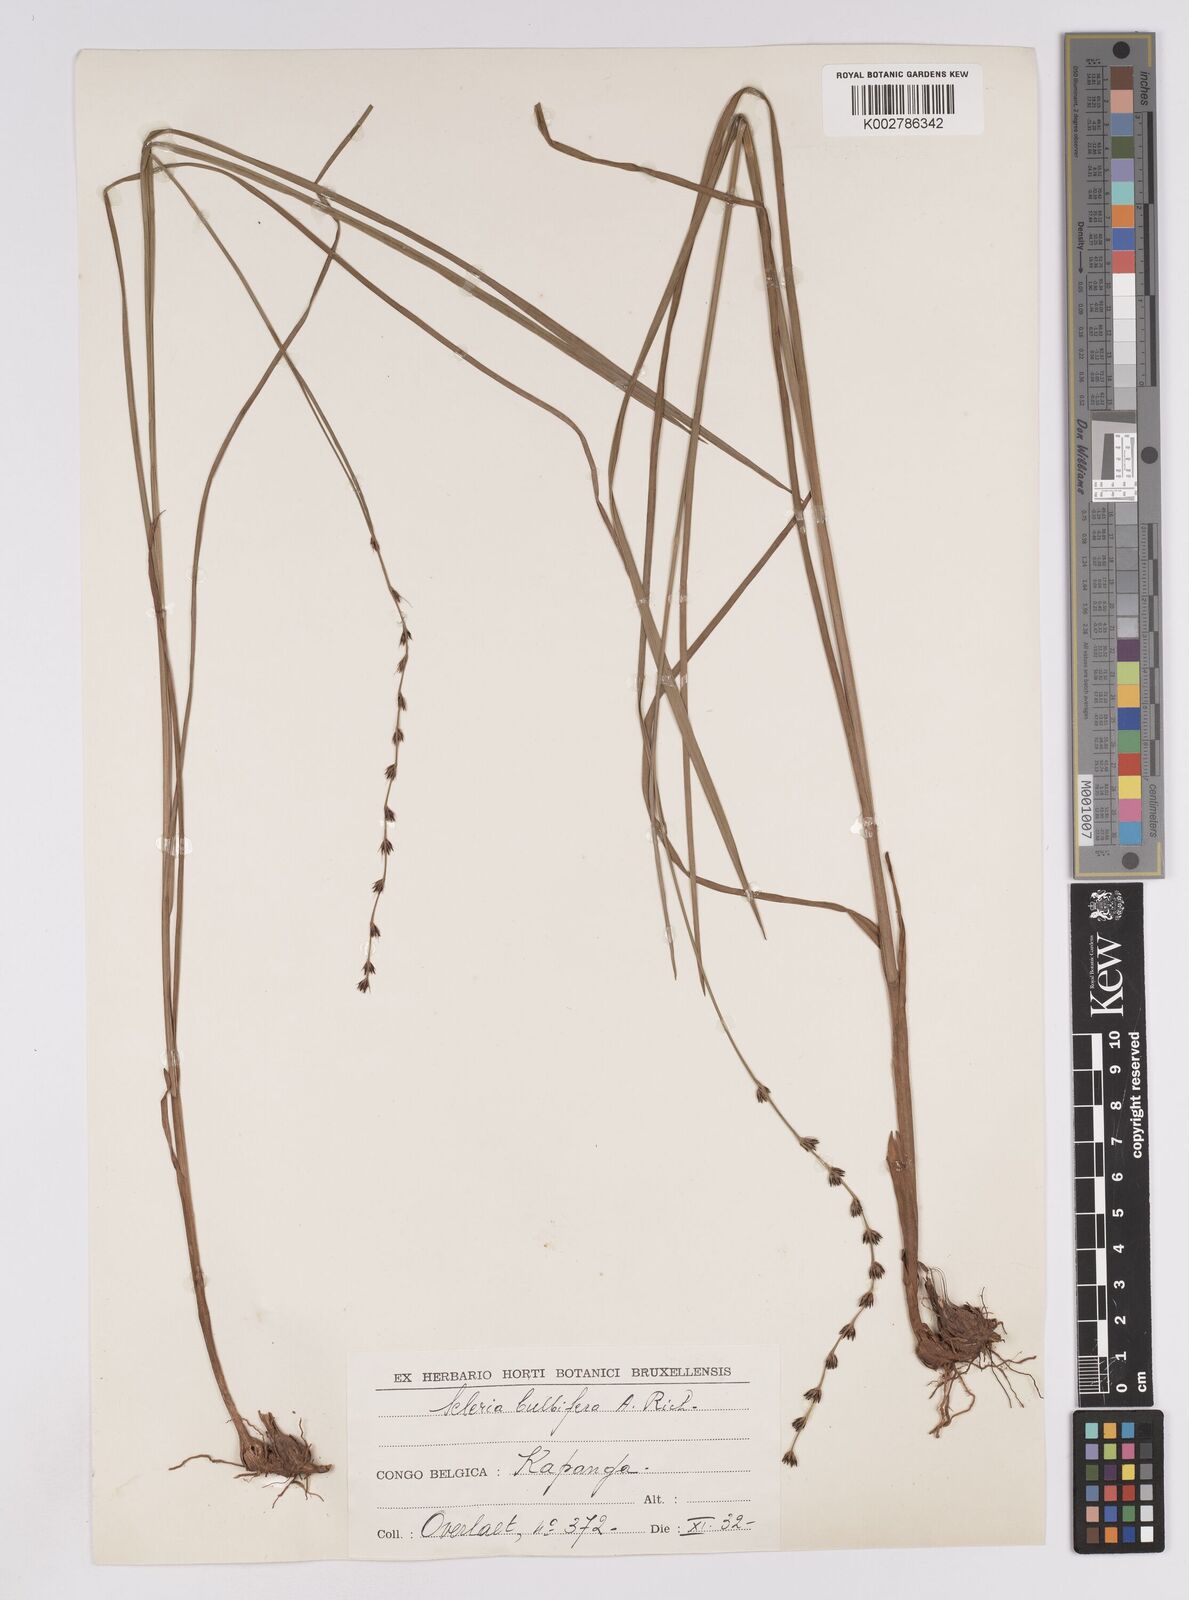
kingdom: Plantae
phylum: Tracheophyta
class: Liliopsida
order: Poales
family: Cyperaceae
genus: Scleria
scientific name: Scleria bulbifera
